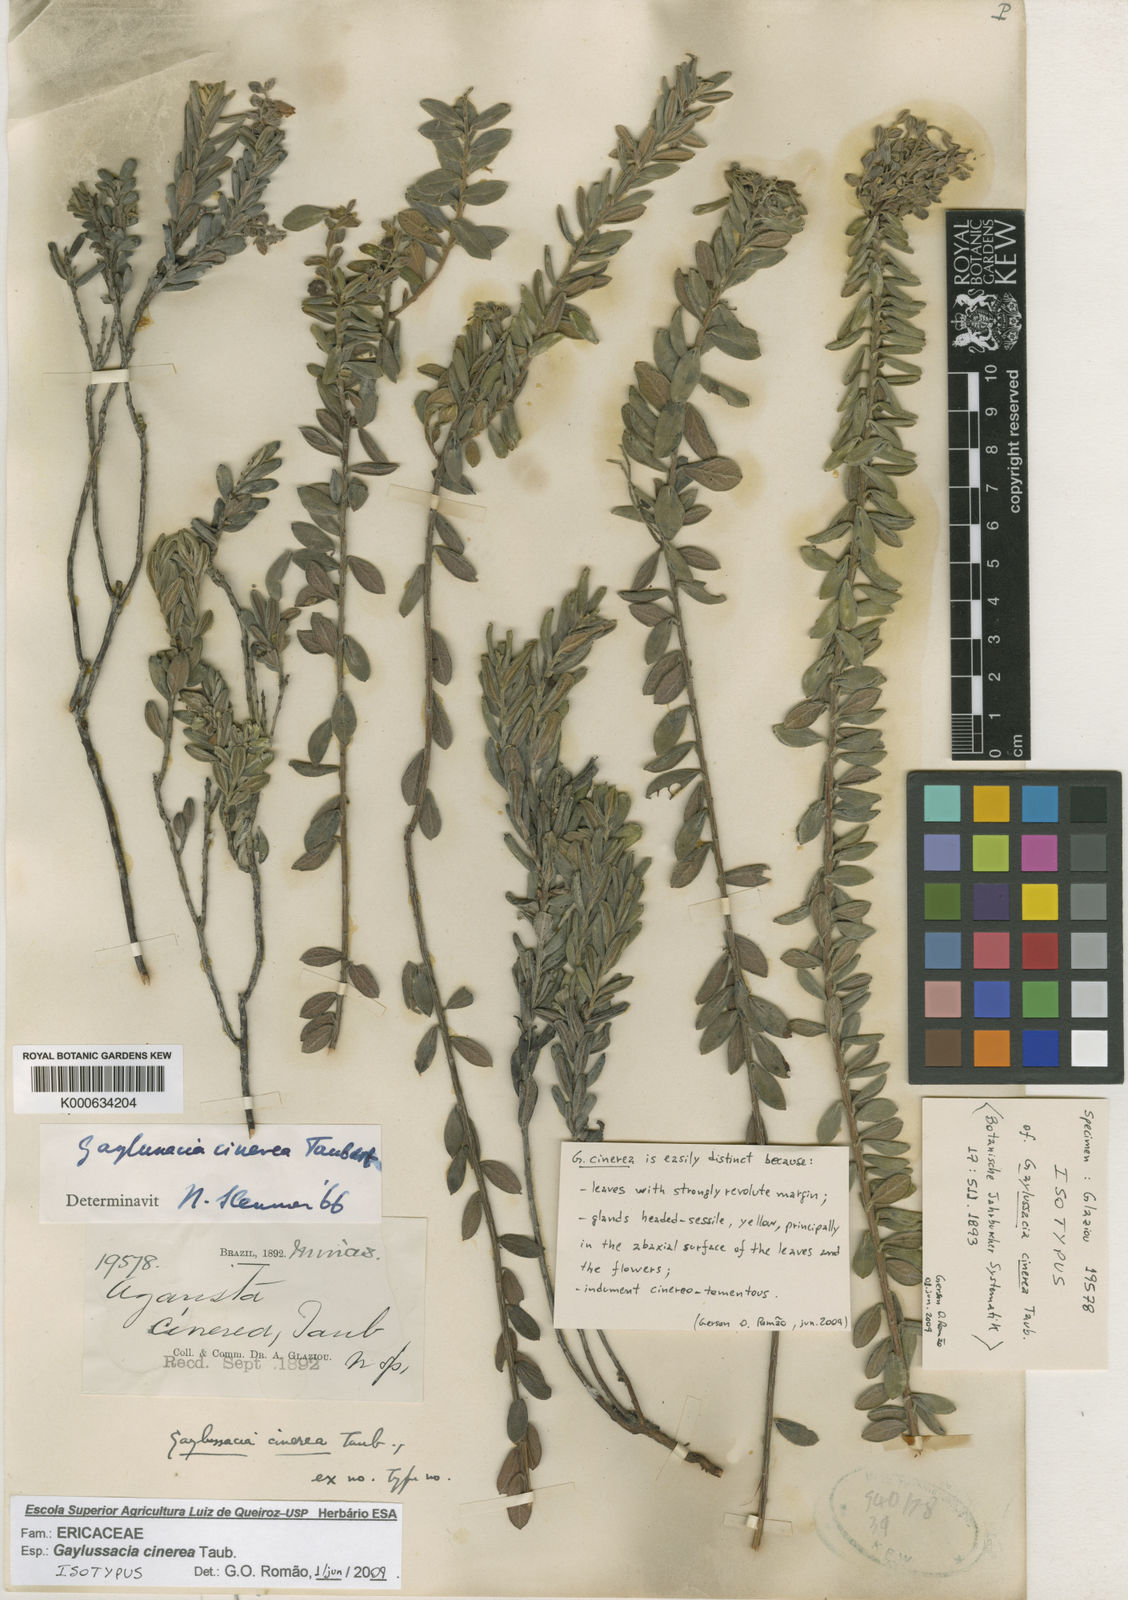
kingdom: Plantae
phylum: Tracheophyta
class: Magnoliopsida
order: Ericales
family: Ericaceae
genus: Gaylussacia
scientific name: Gaylussacia cinerea
